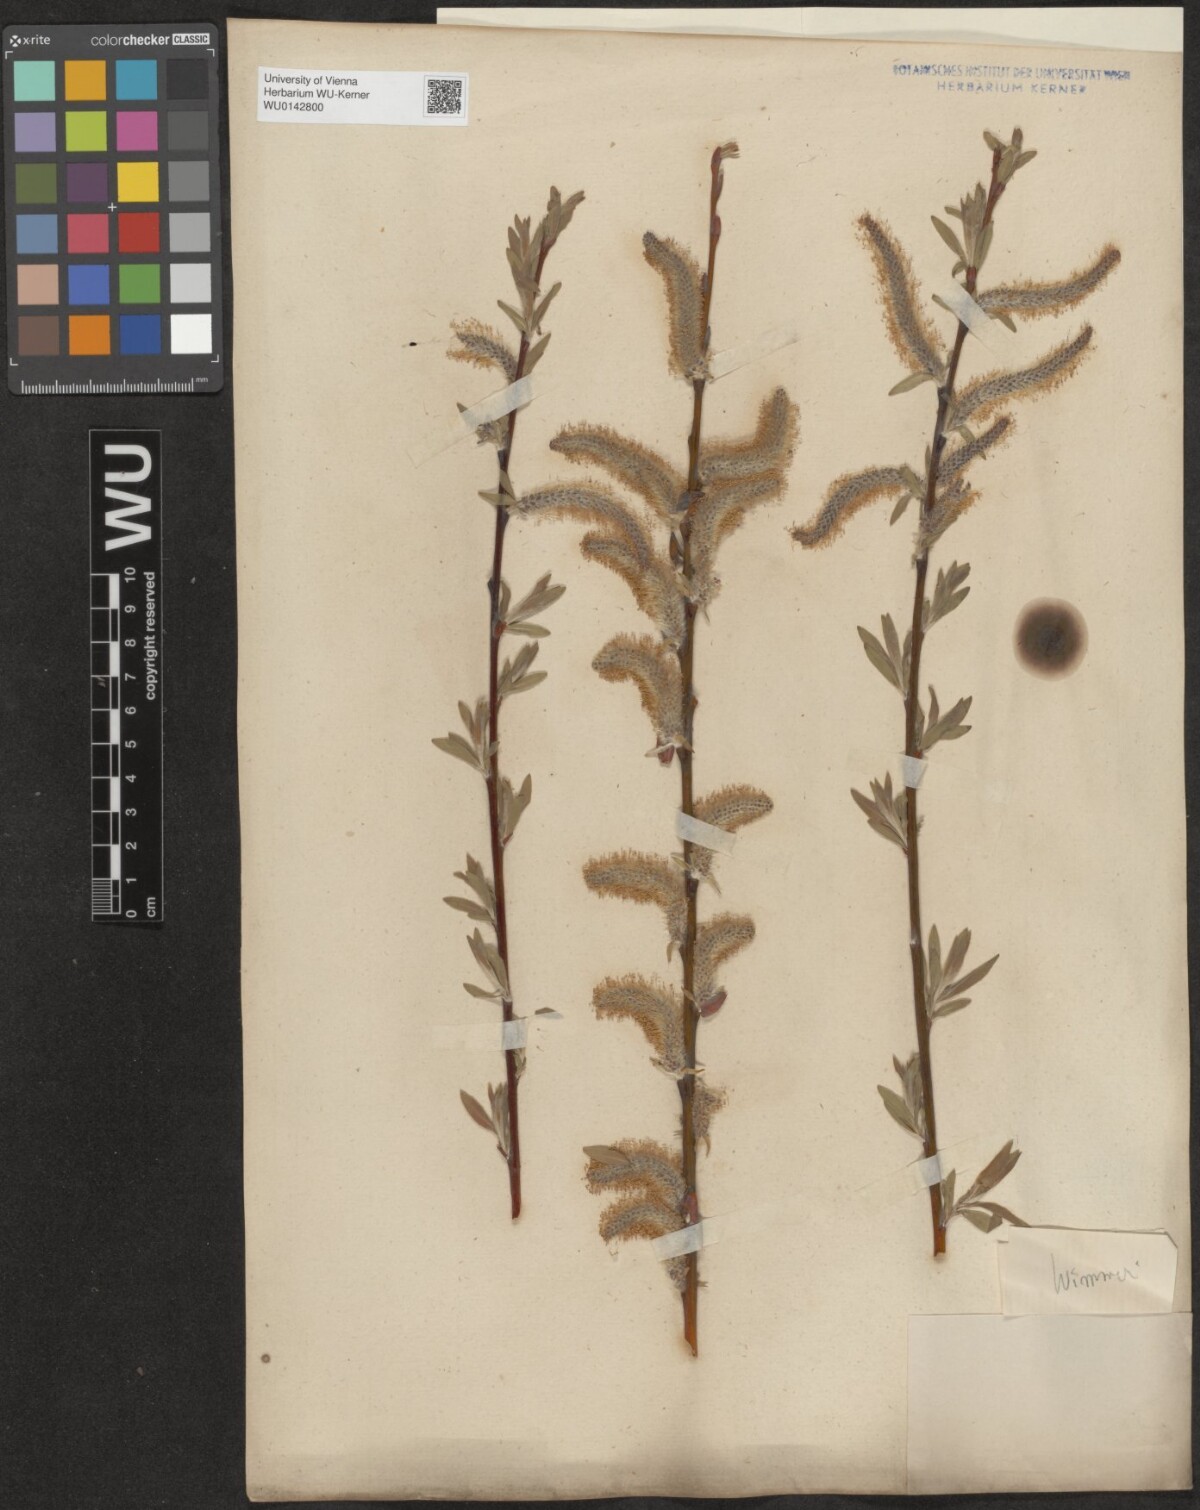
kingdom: Plantae
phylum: Tracheophyta
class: Magnoliopsida
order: Malpighiales
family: Salicaceae
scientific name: Salicaceae
